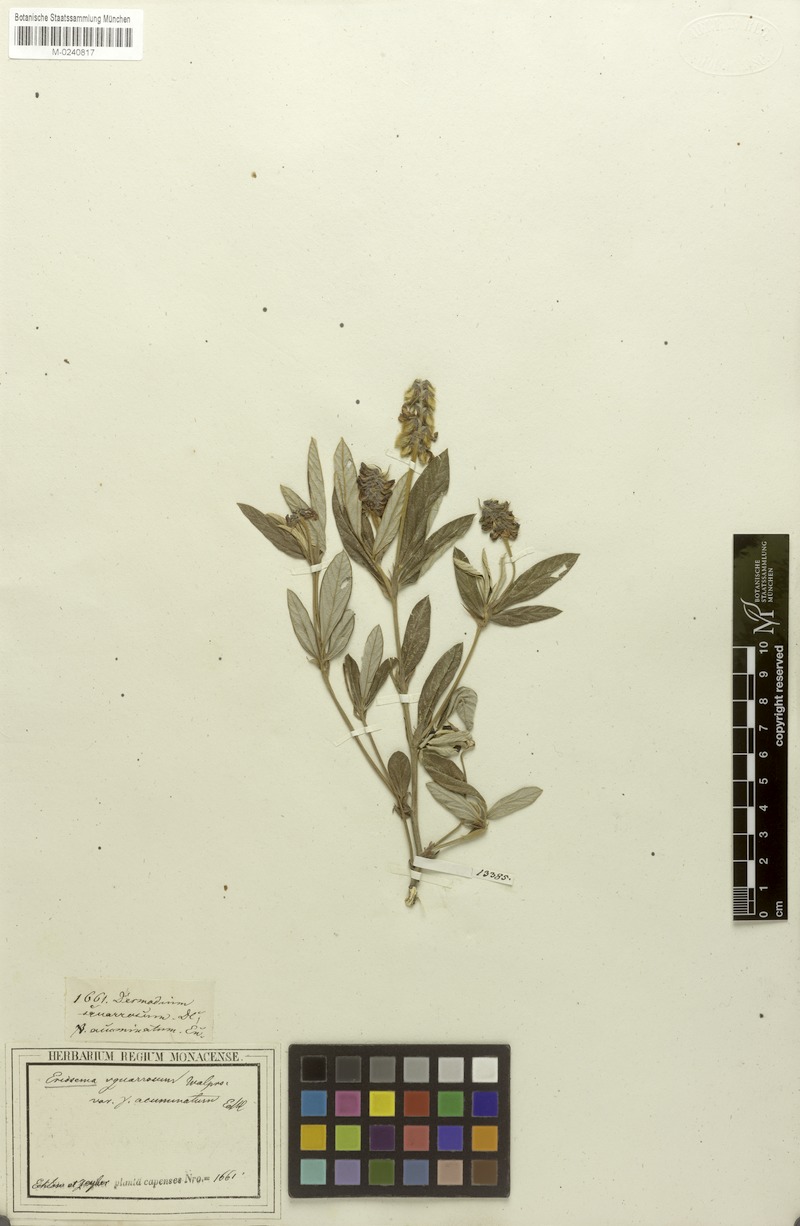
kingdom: Plantae
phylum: Tracheophyta
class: Magnoliopsida
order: Fabales
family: Fabaceae
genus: Eriosema
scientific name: Eriosema squarrosum
